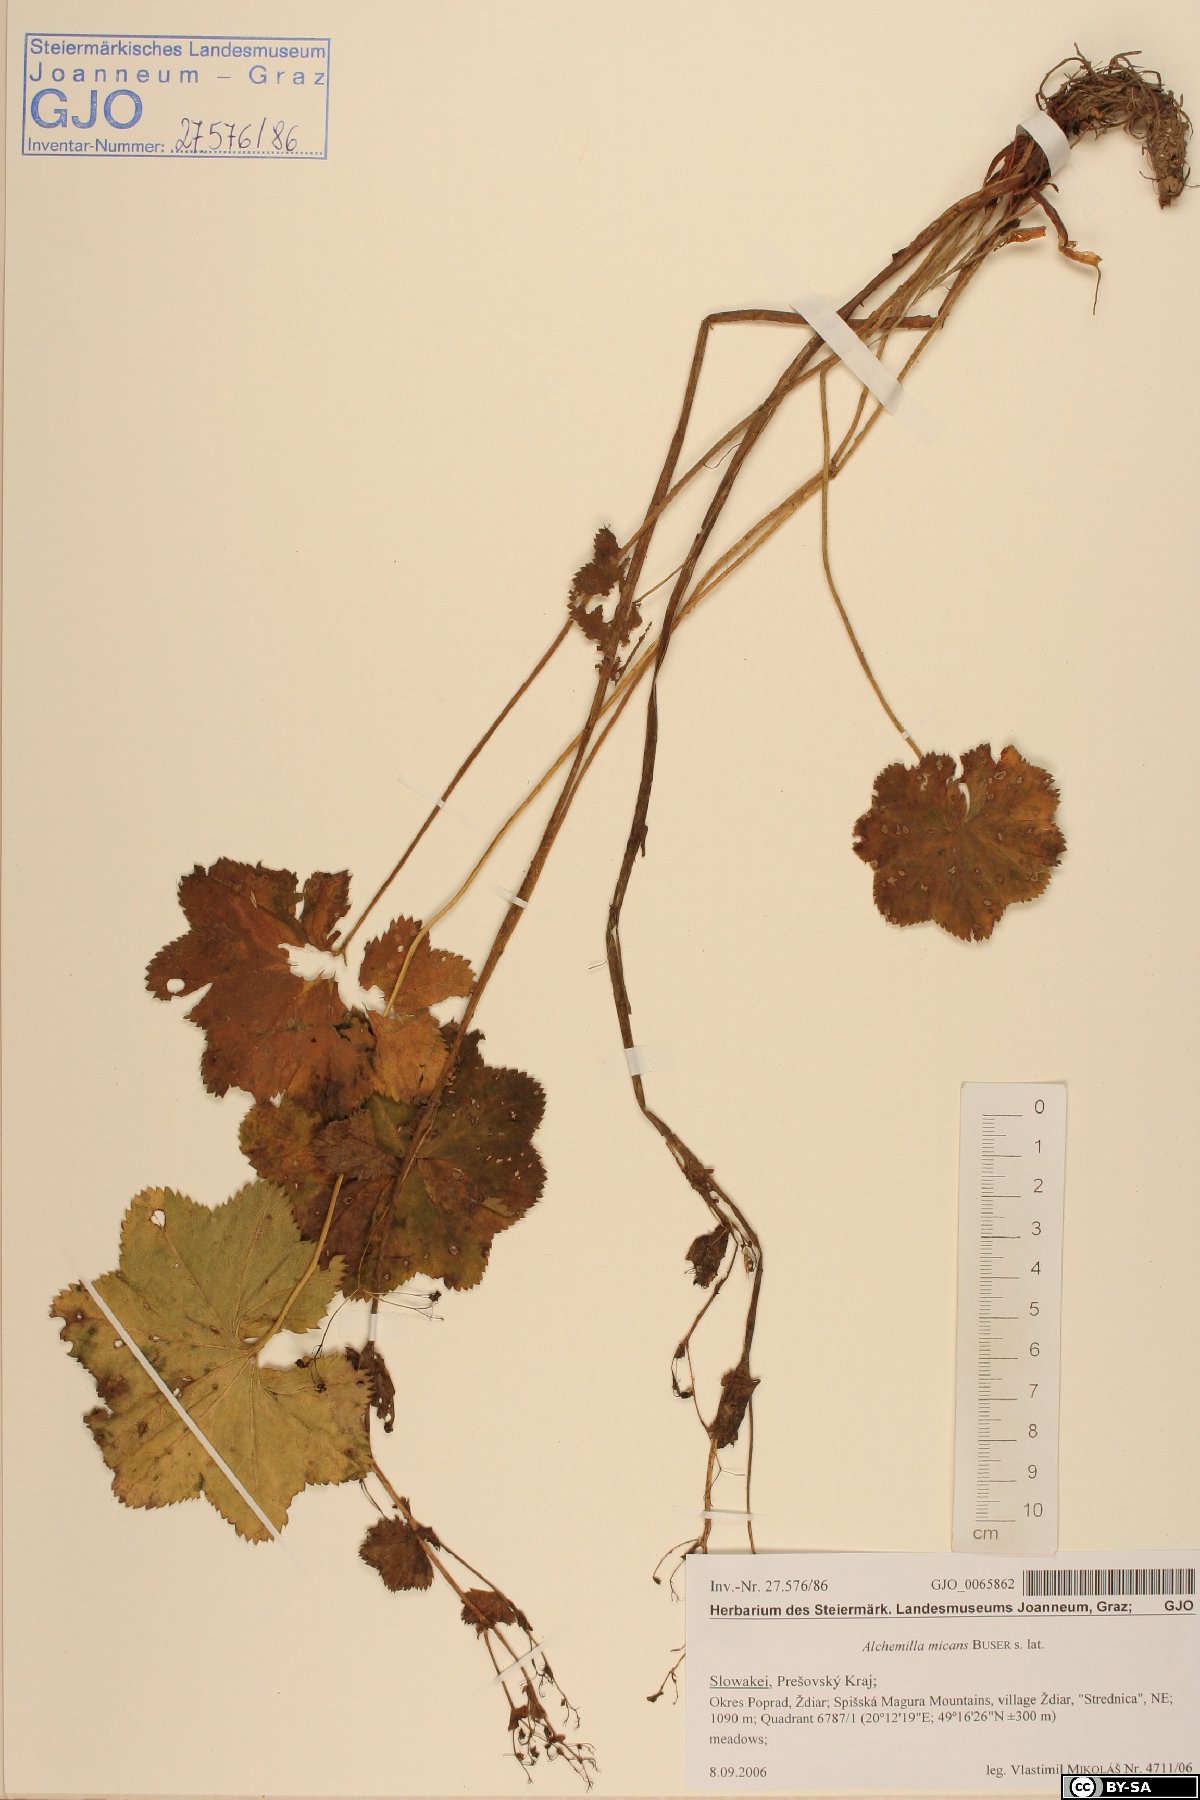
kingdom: Plantae
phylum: Tracheophyta
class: Magnoliopsida
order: Rosales
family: Rosaceae
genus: Alchemilla
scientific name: Alchemilla micans
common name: Gleaming lady's mantle
